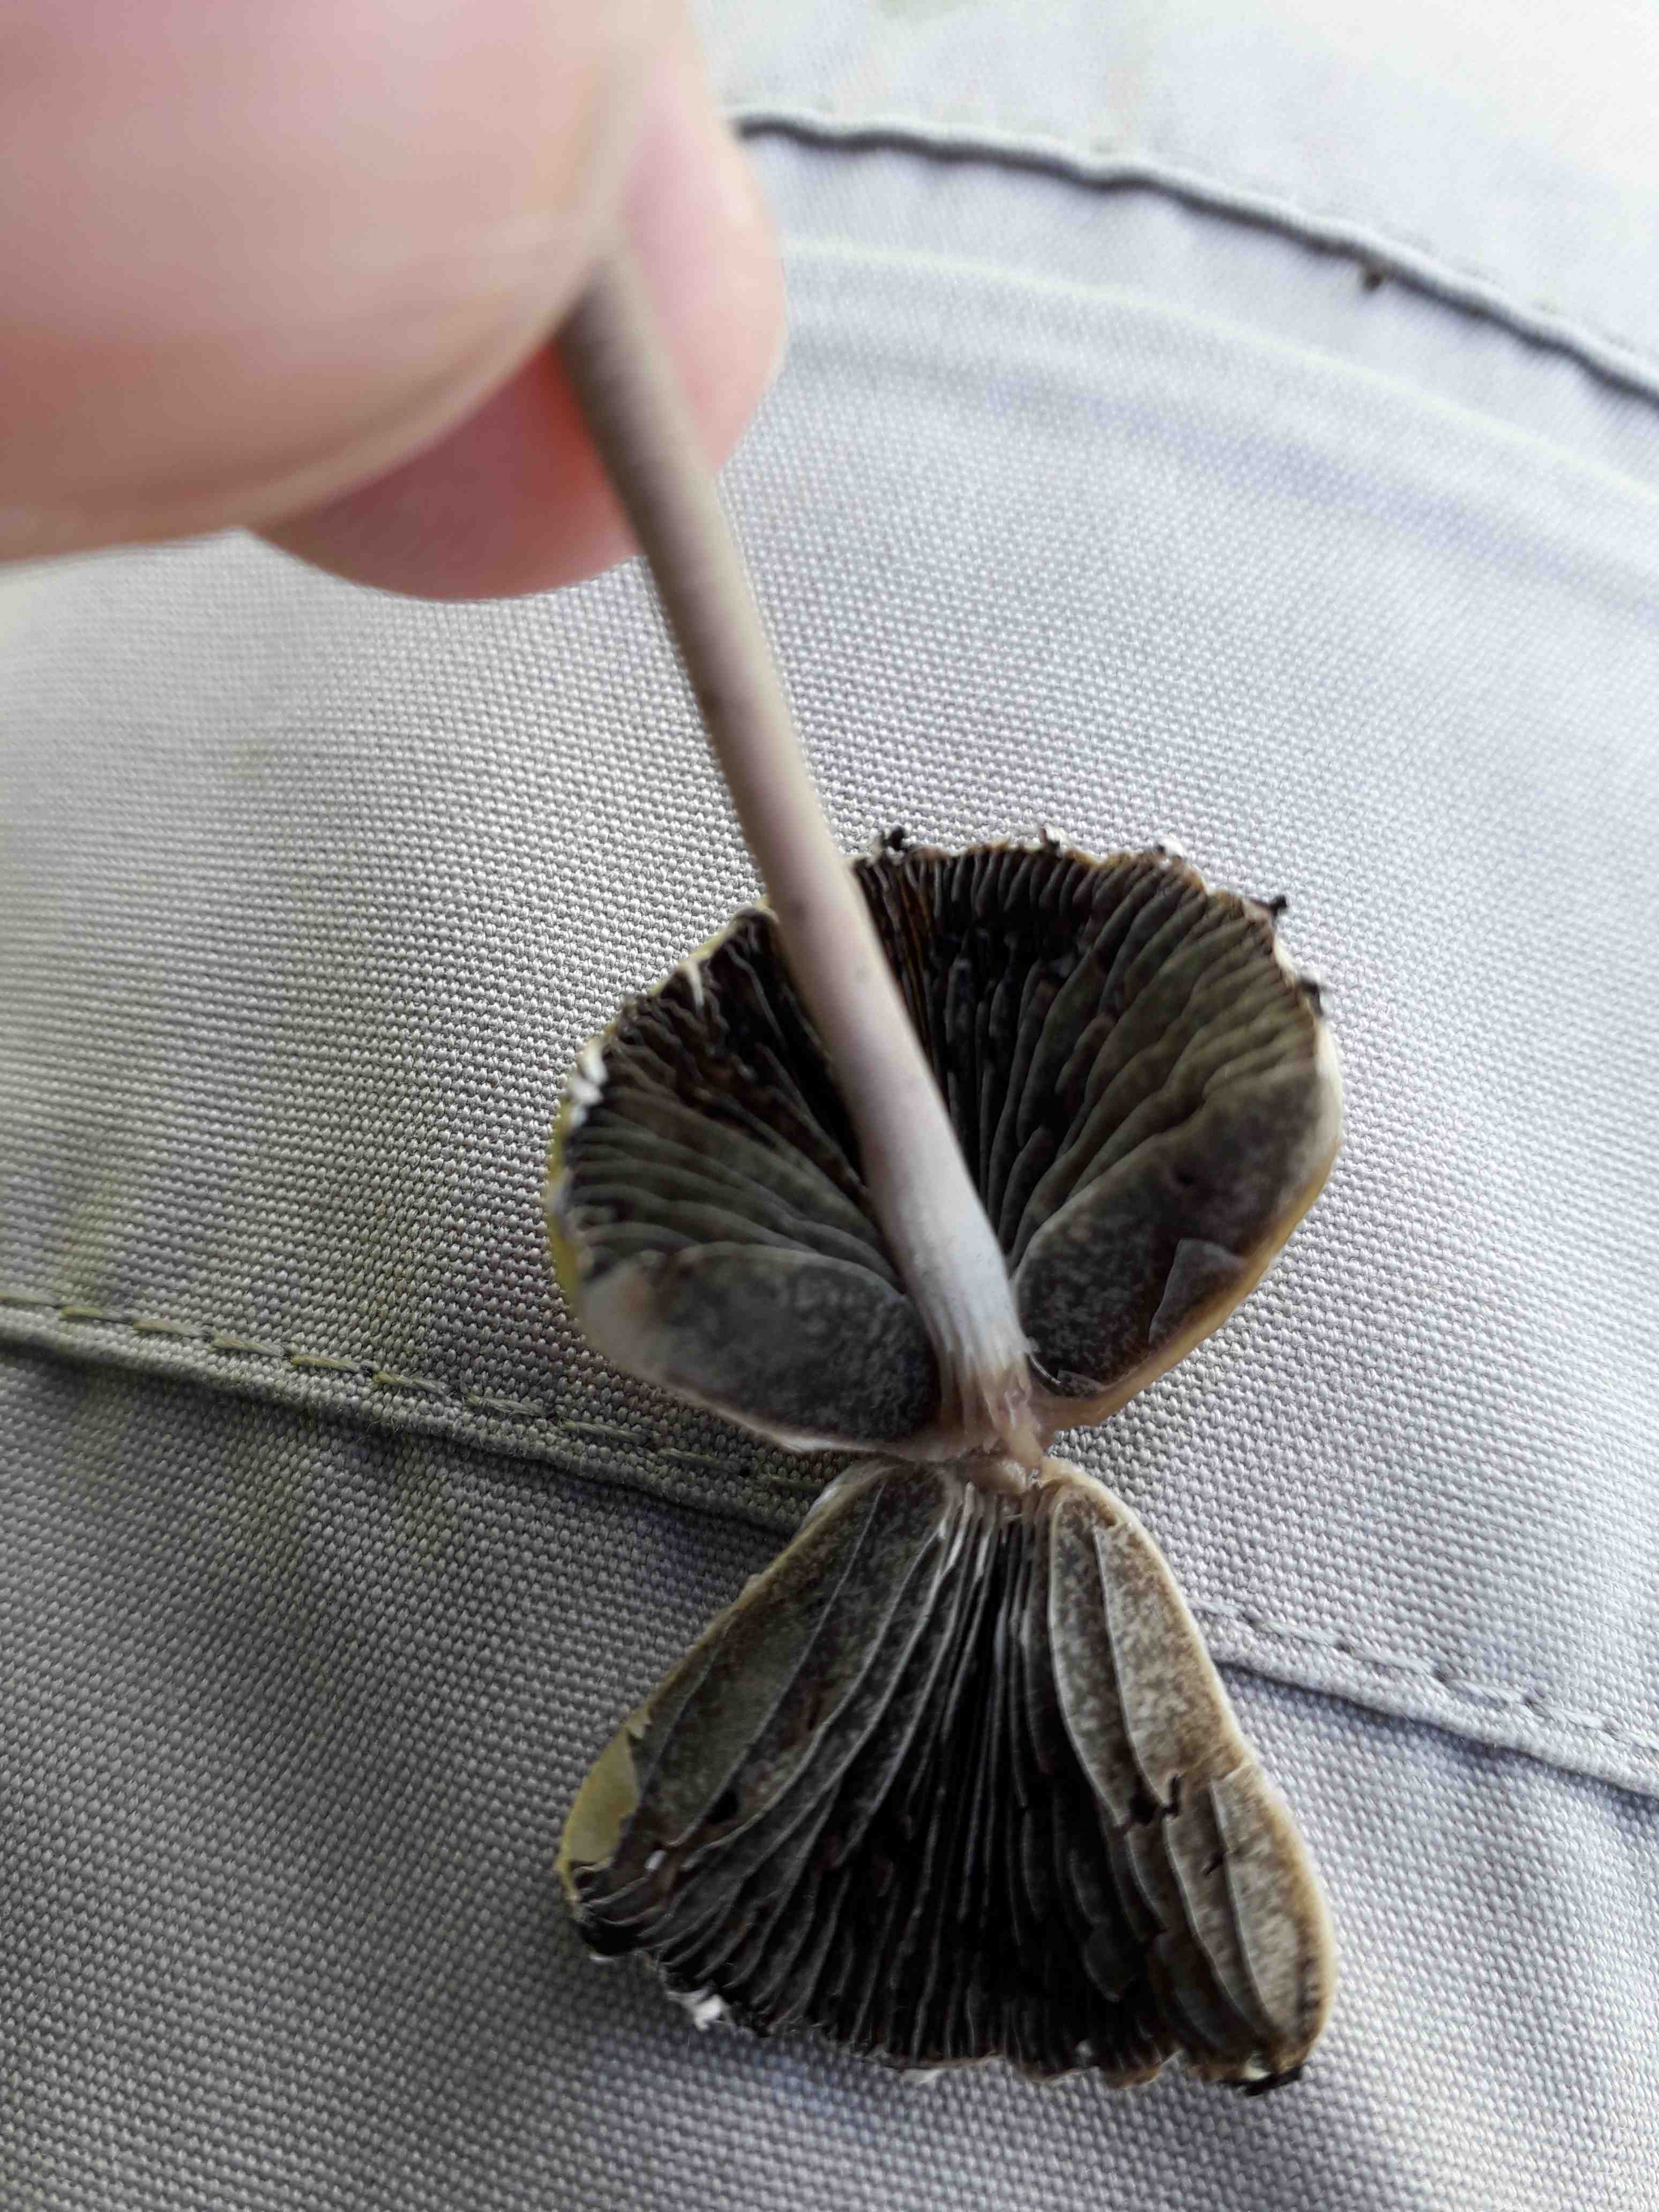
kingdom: Fungi
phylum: Basidiomycota
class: Agaricomycetes
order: Agaricales
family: Bolbitiaceae
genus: Panaeolus
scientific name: Panaeolus papilionaceus
